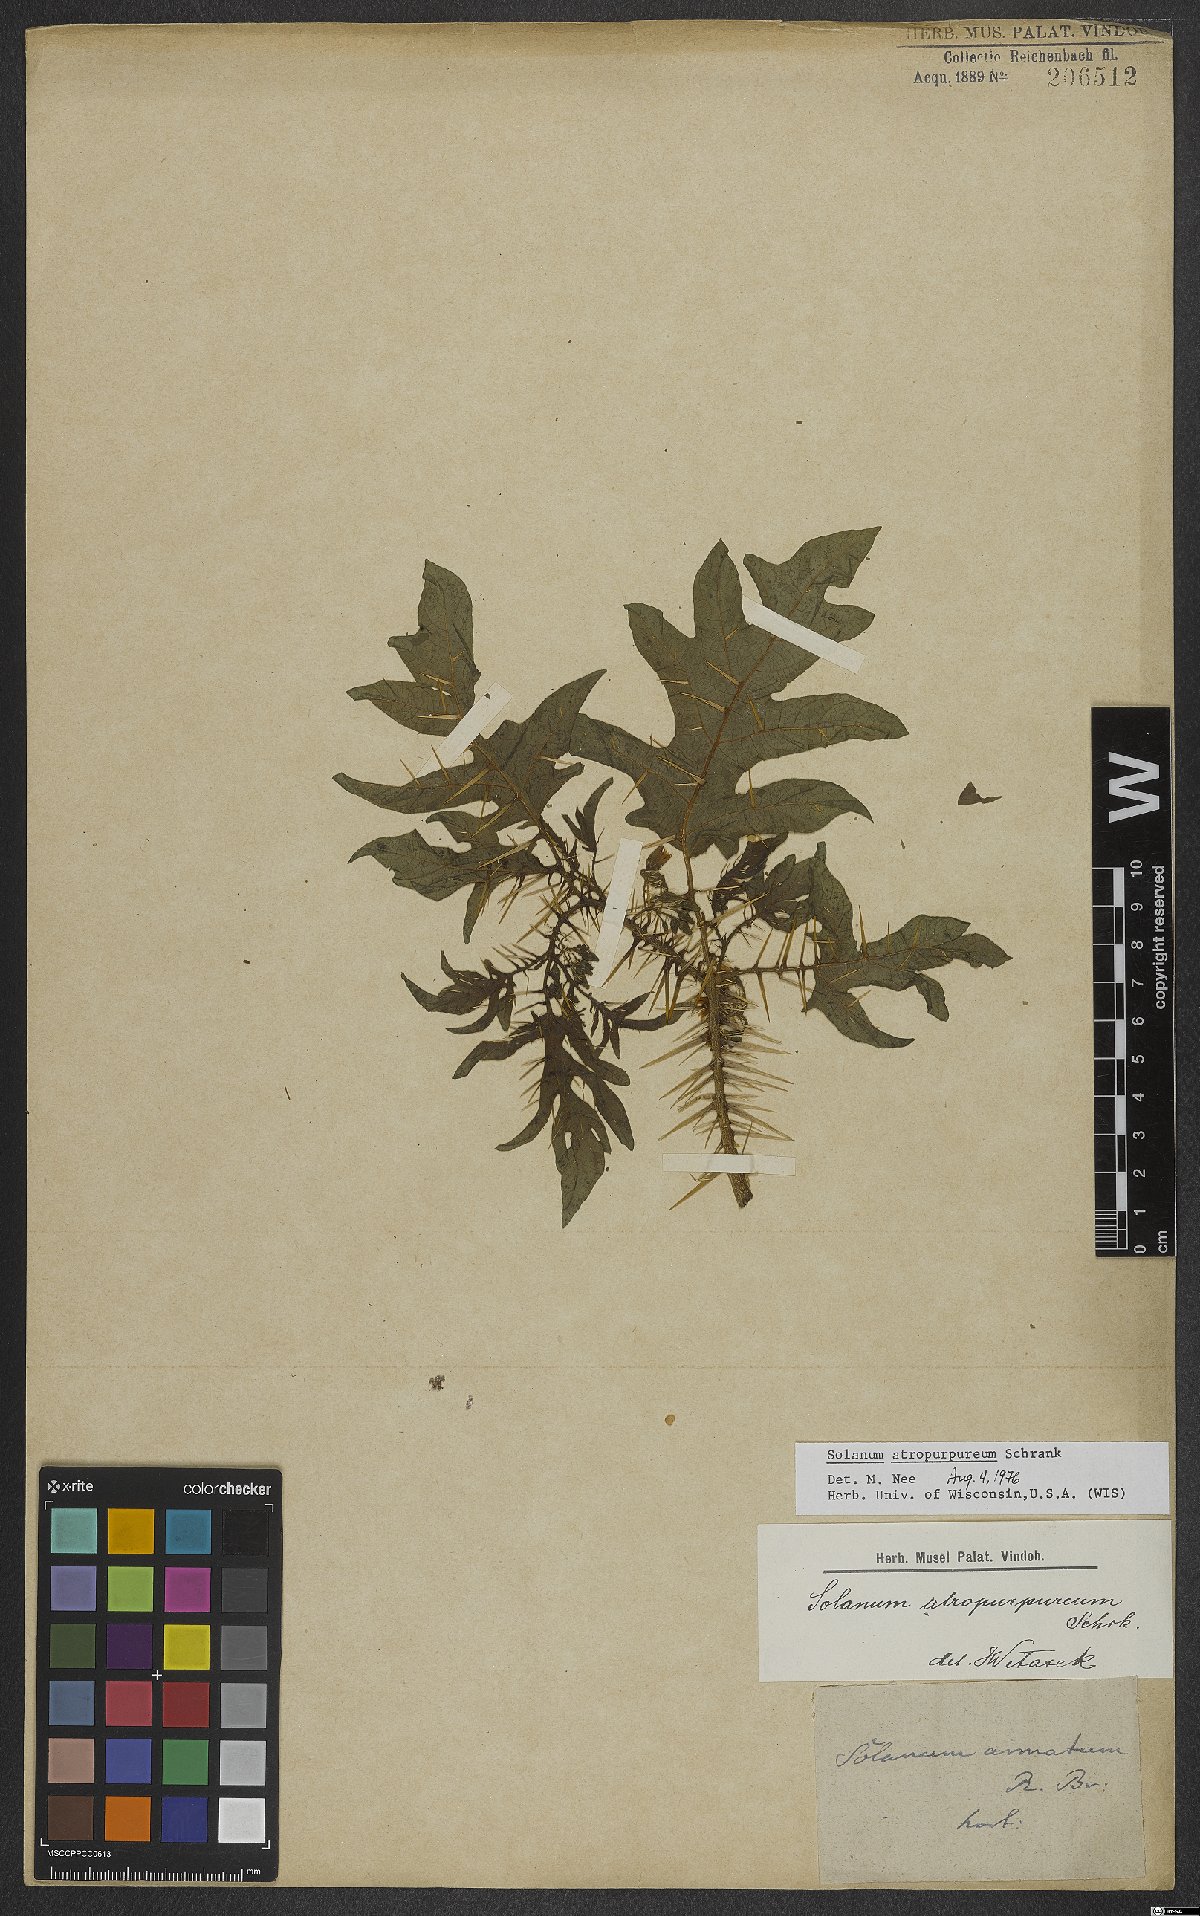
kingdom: Plantae
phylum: Tracheophyta
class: Magnoliopsida
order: Solanales
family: Solanaceae
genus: Solanum
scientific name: Solanum atropurpureum
